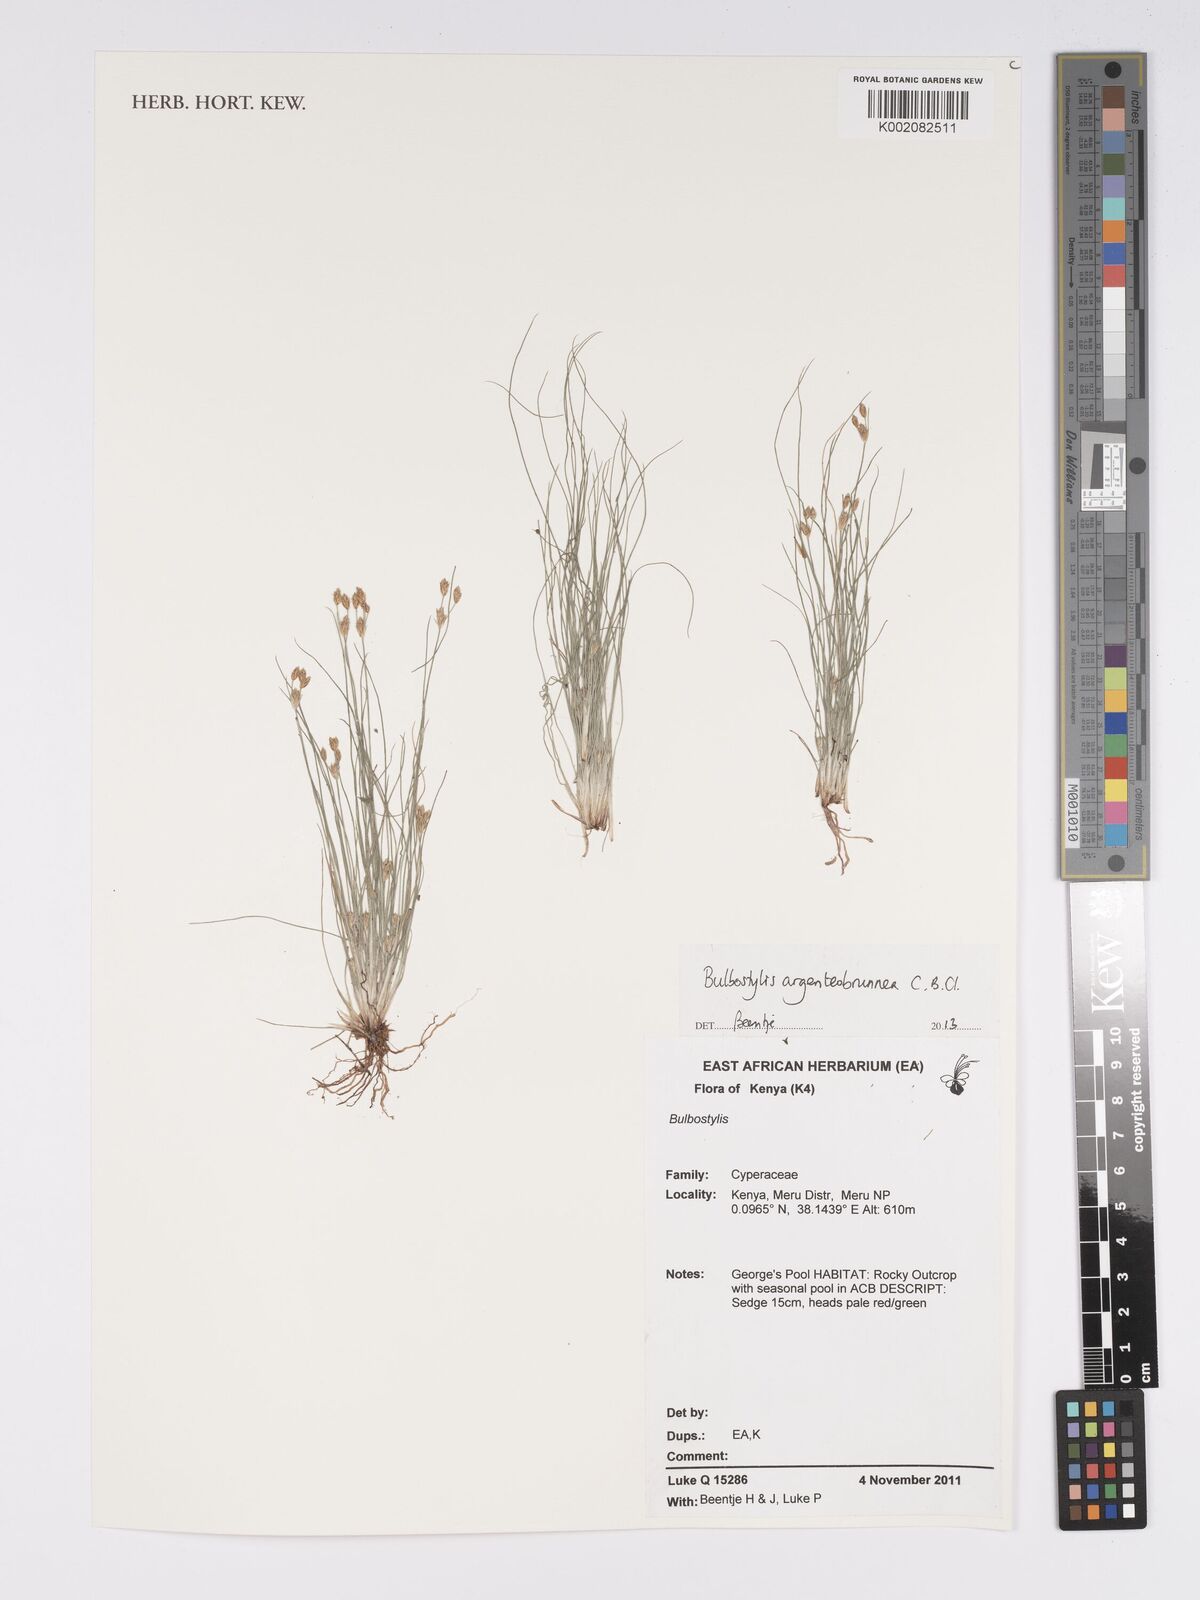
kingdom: Plantae
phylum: Tracheophyta
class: Liliopsida
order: Poales
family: Cyperaceae
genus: Bulbostylis
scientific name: Bulbostylis argenteobrunea
